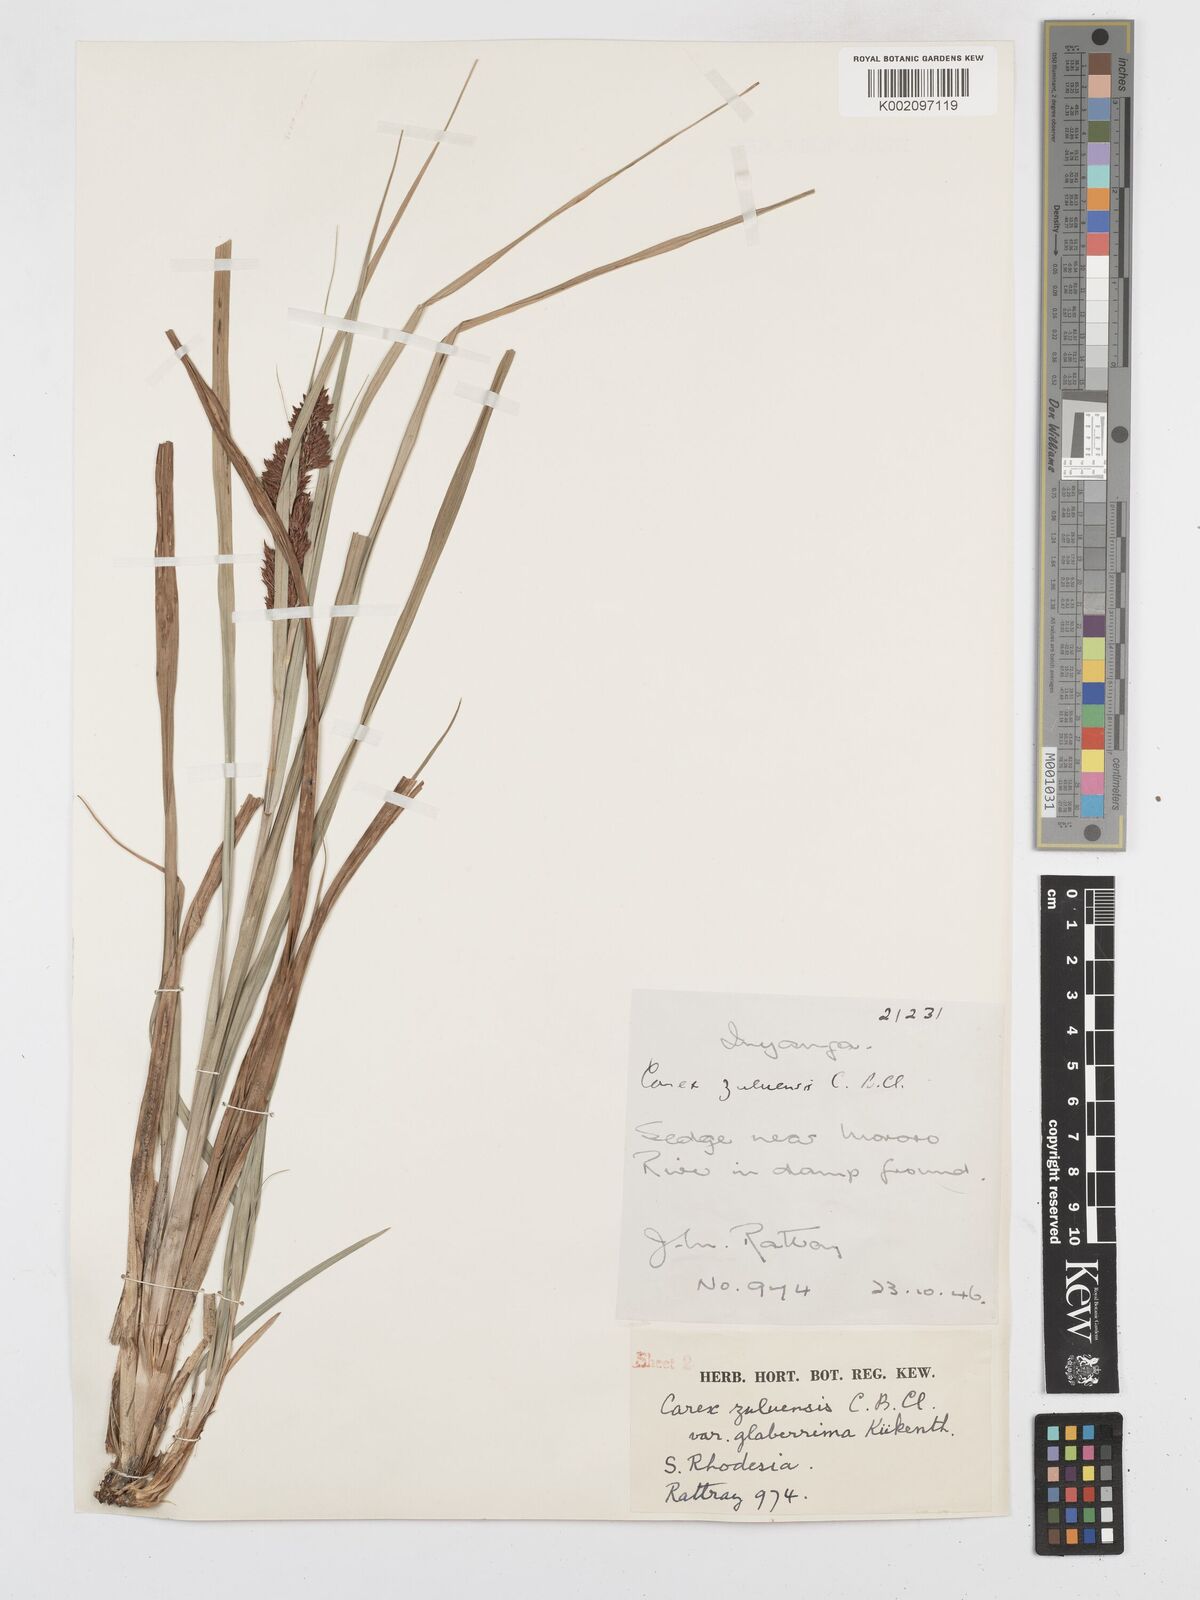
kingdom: Plantae
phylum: Tracheophyta
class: Liliopsida
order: Poales
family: Cyperaceae
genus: Carex
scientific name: Carex steudneri
